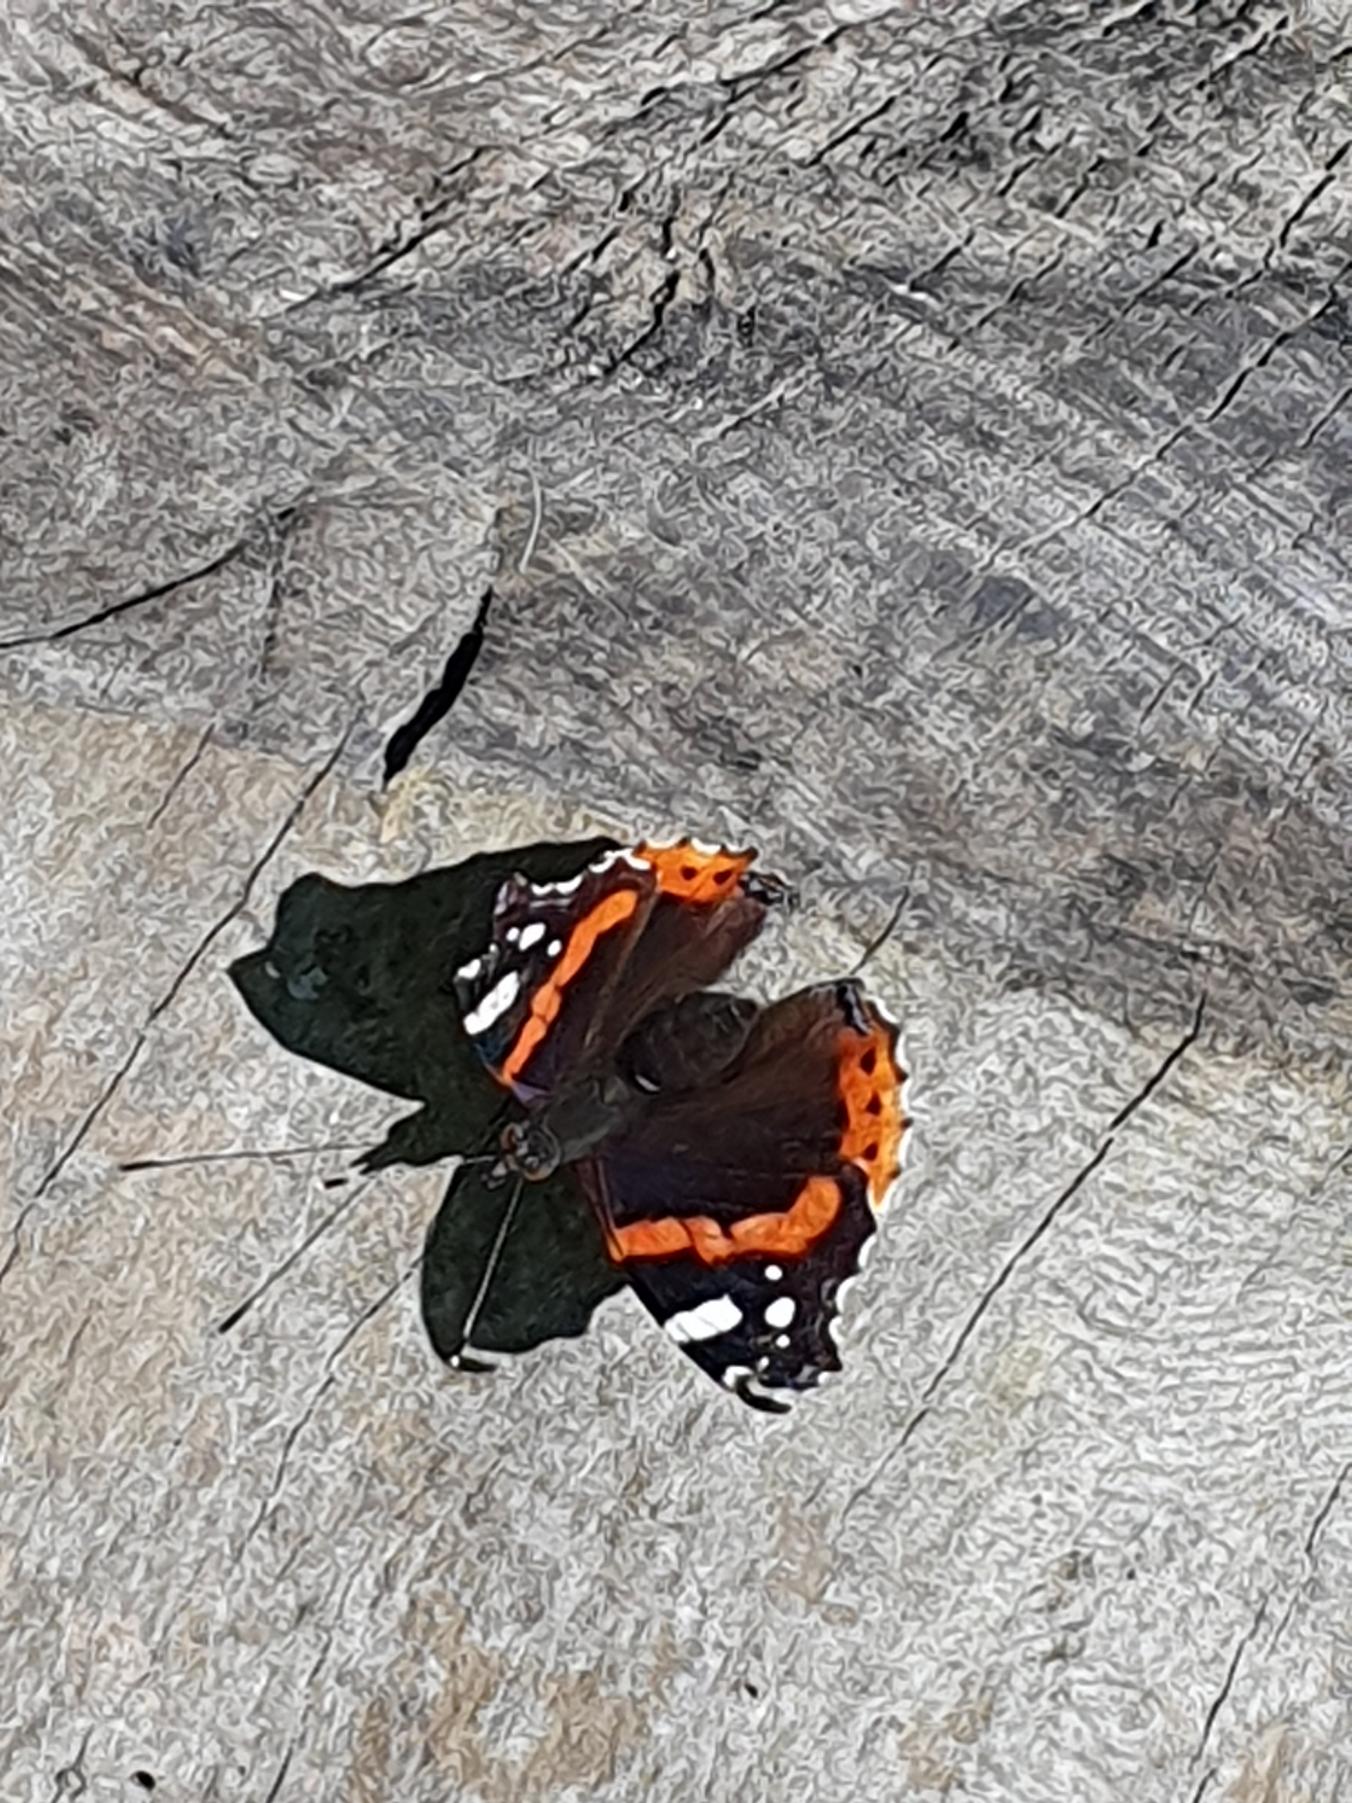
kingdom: Animalia
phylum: Arthropoda
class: Insecta
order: Lepidoptera
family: Nymphalidae
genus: Vanessa
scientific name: Vanessa atalanta
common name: Admiral
